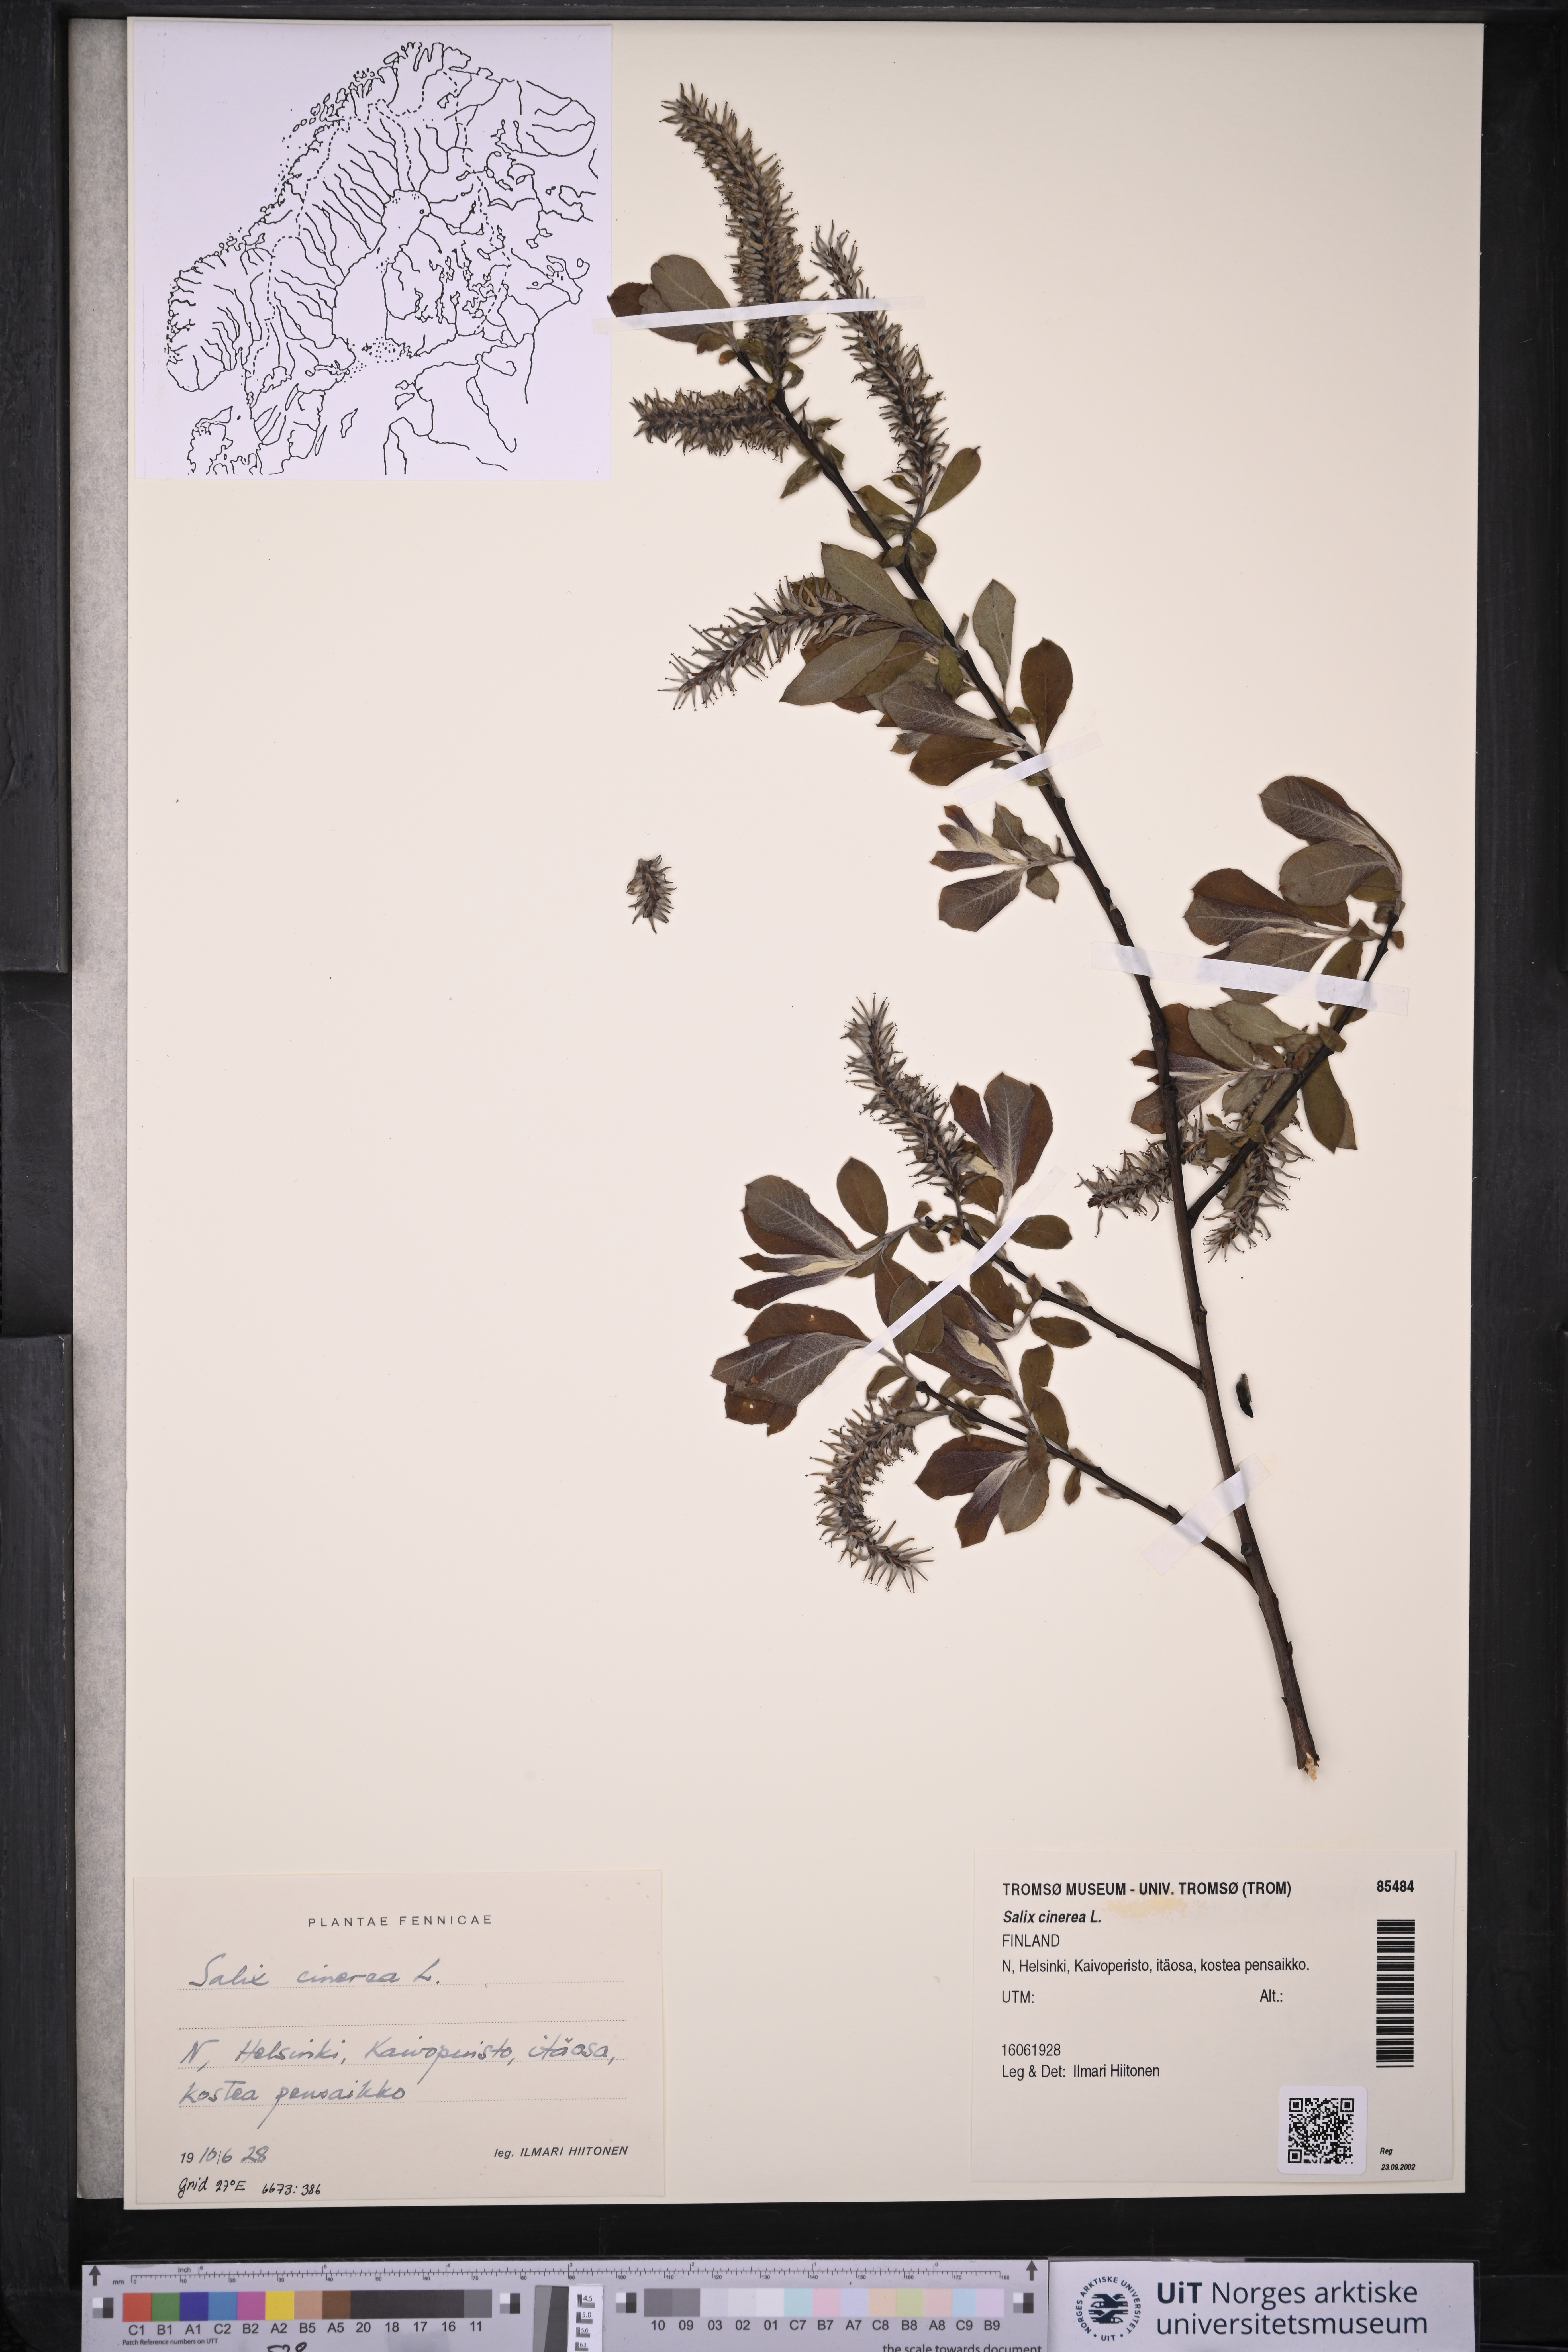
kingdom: Plantae
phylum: Tracheophyta
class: Magnoliopsida
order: Malpighiales
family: Salicaceae
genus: Salix
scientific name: Salix cinerea
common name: Common sallow
